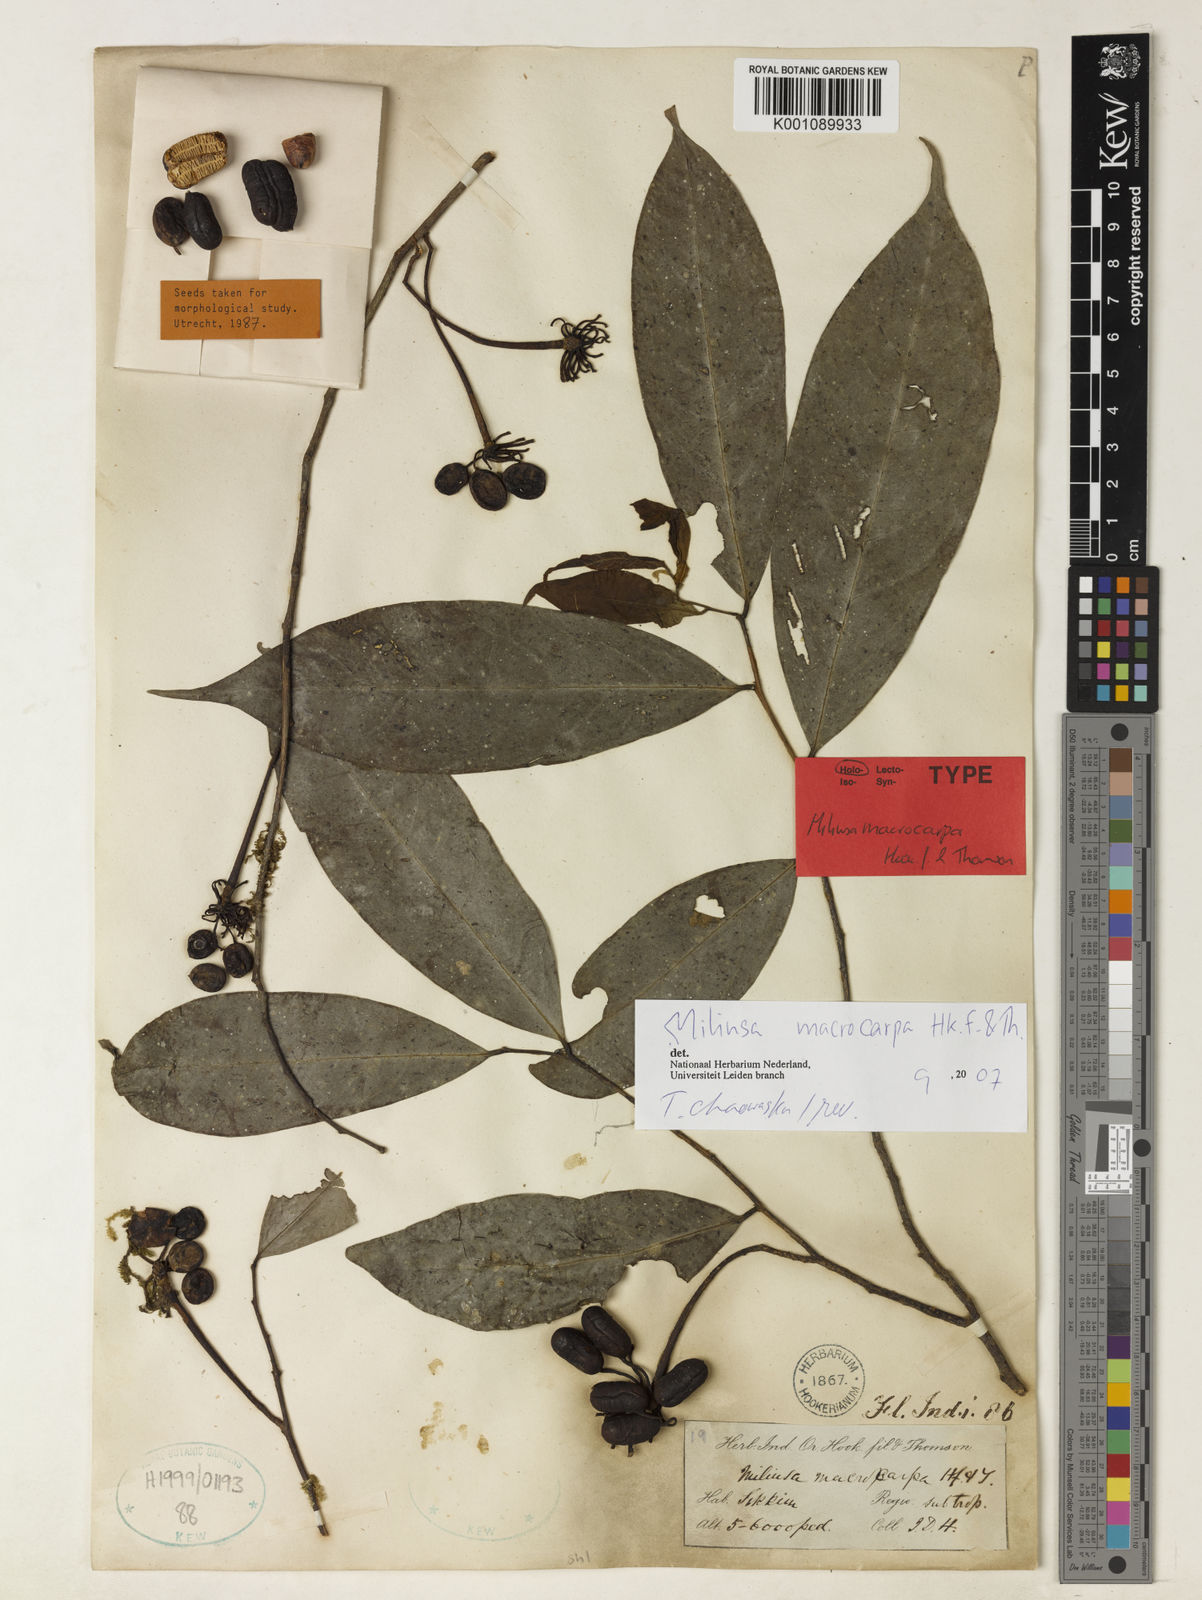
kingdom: Plantae
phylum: Tracheophyta
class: Magnoliopsida
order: Magnoliales
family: Annonaceae
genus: Miliusa
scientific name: Miliusa macrocarpa
